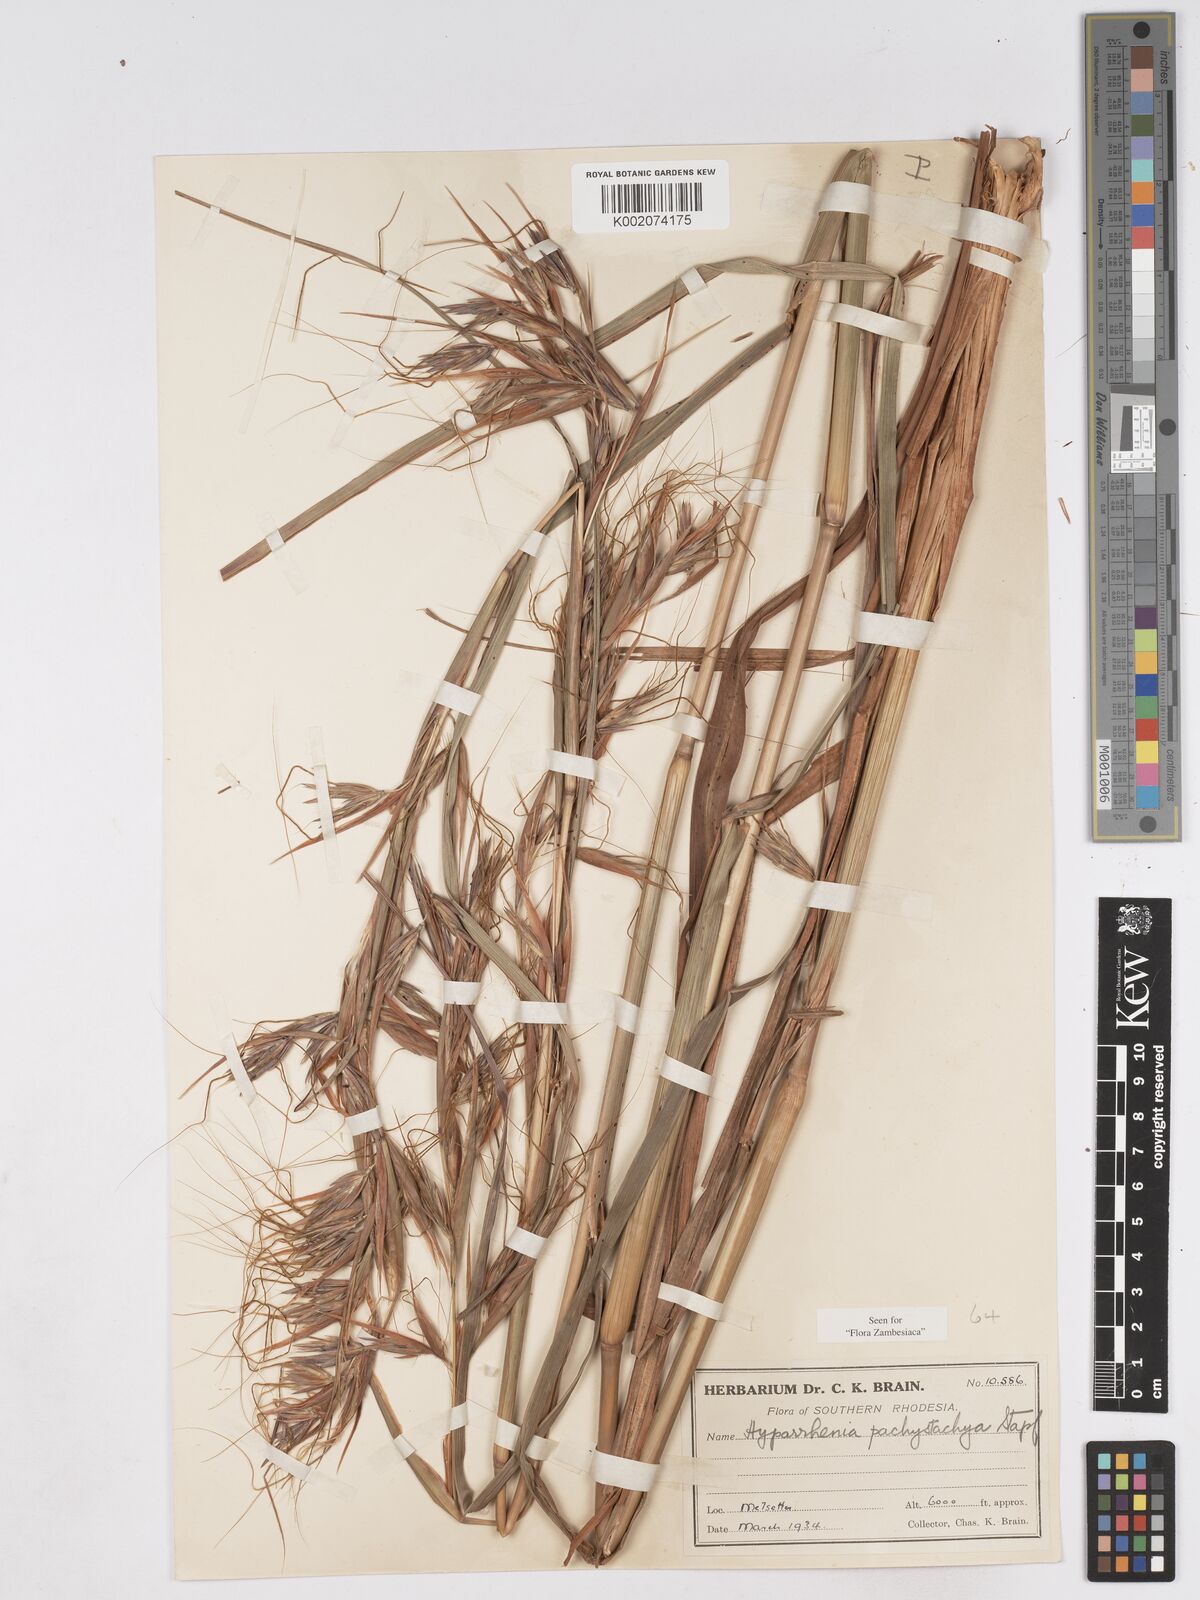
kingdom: Plantae
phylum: Tracheophyta
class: Liliopsida
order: Poales
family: Poaceae
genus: Hyparrhenia
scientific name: Hyparrhenia diplandra
